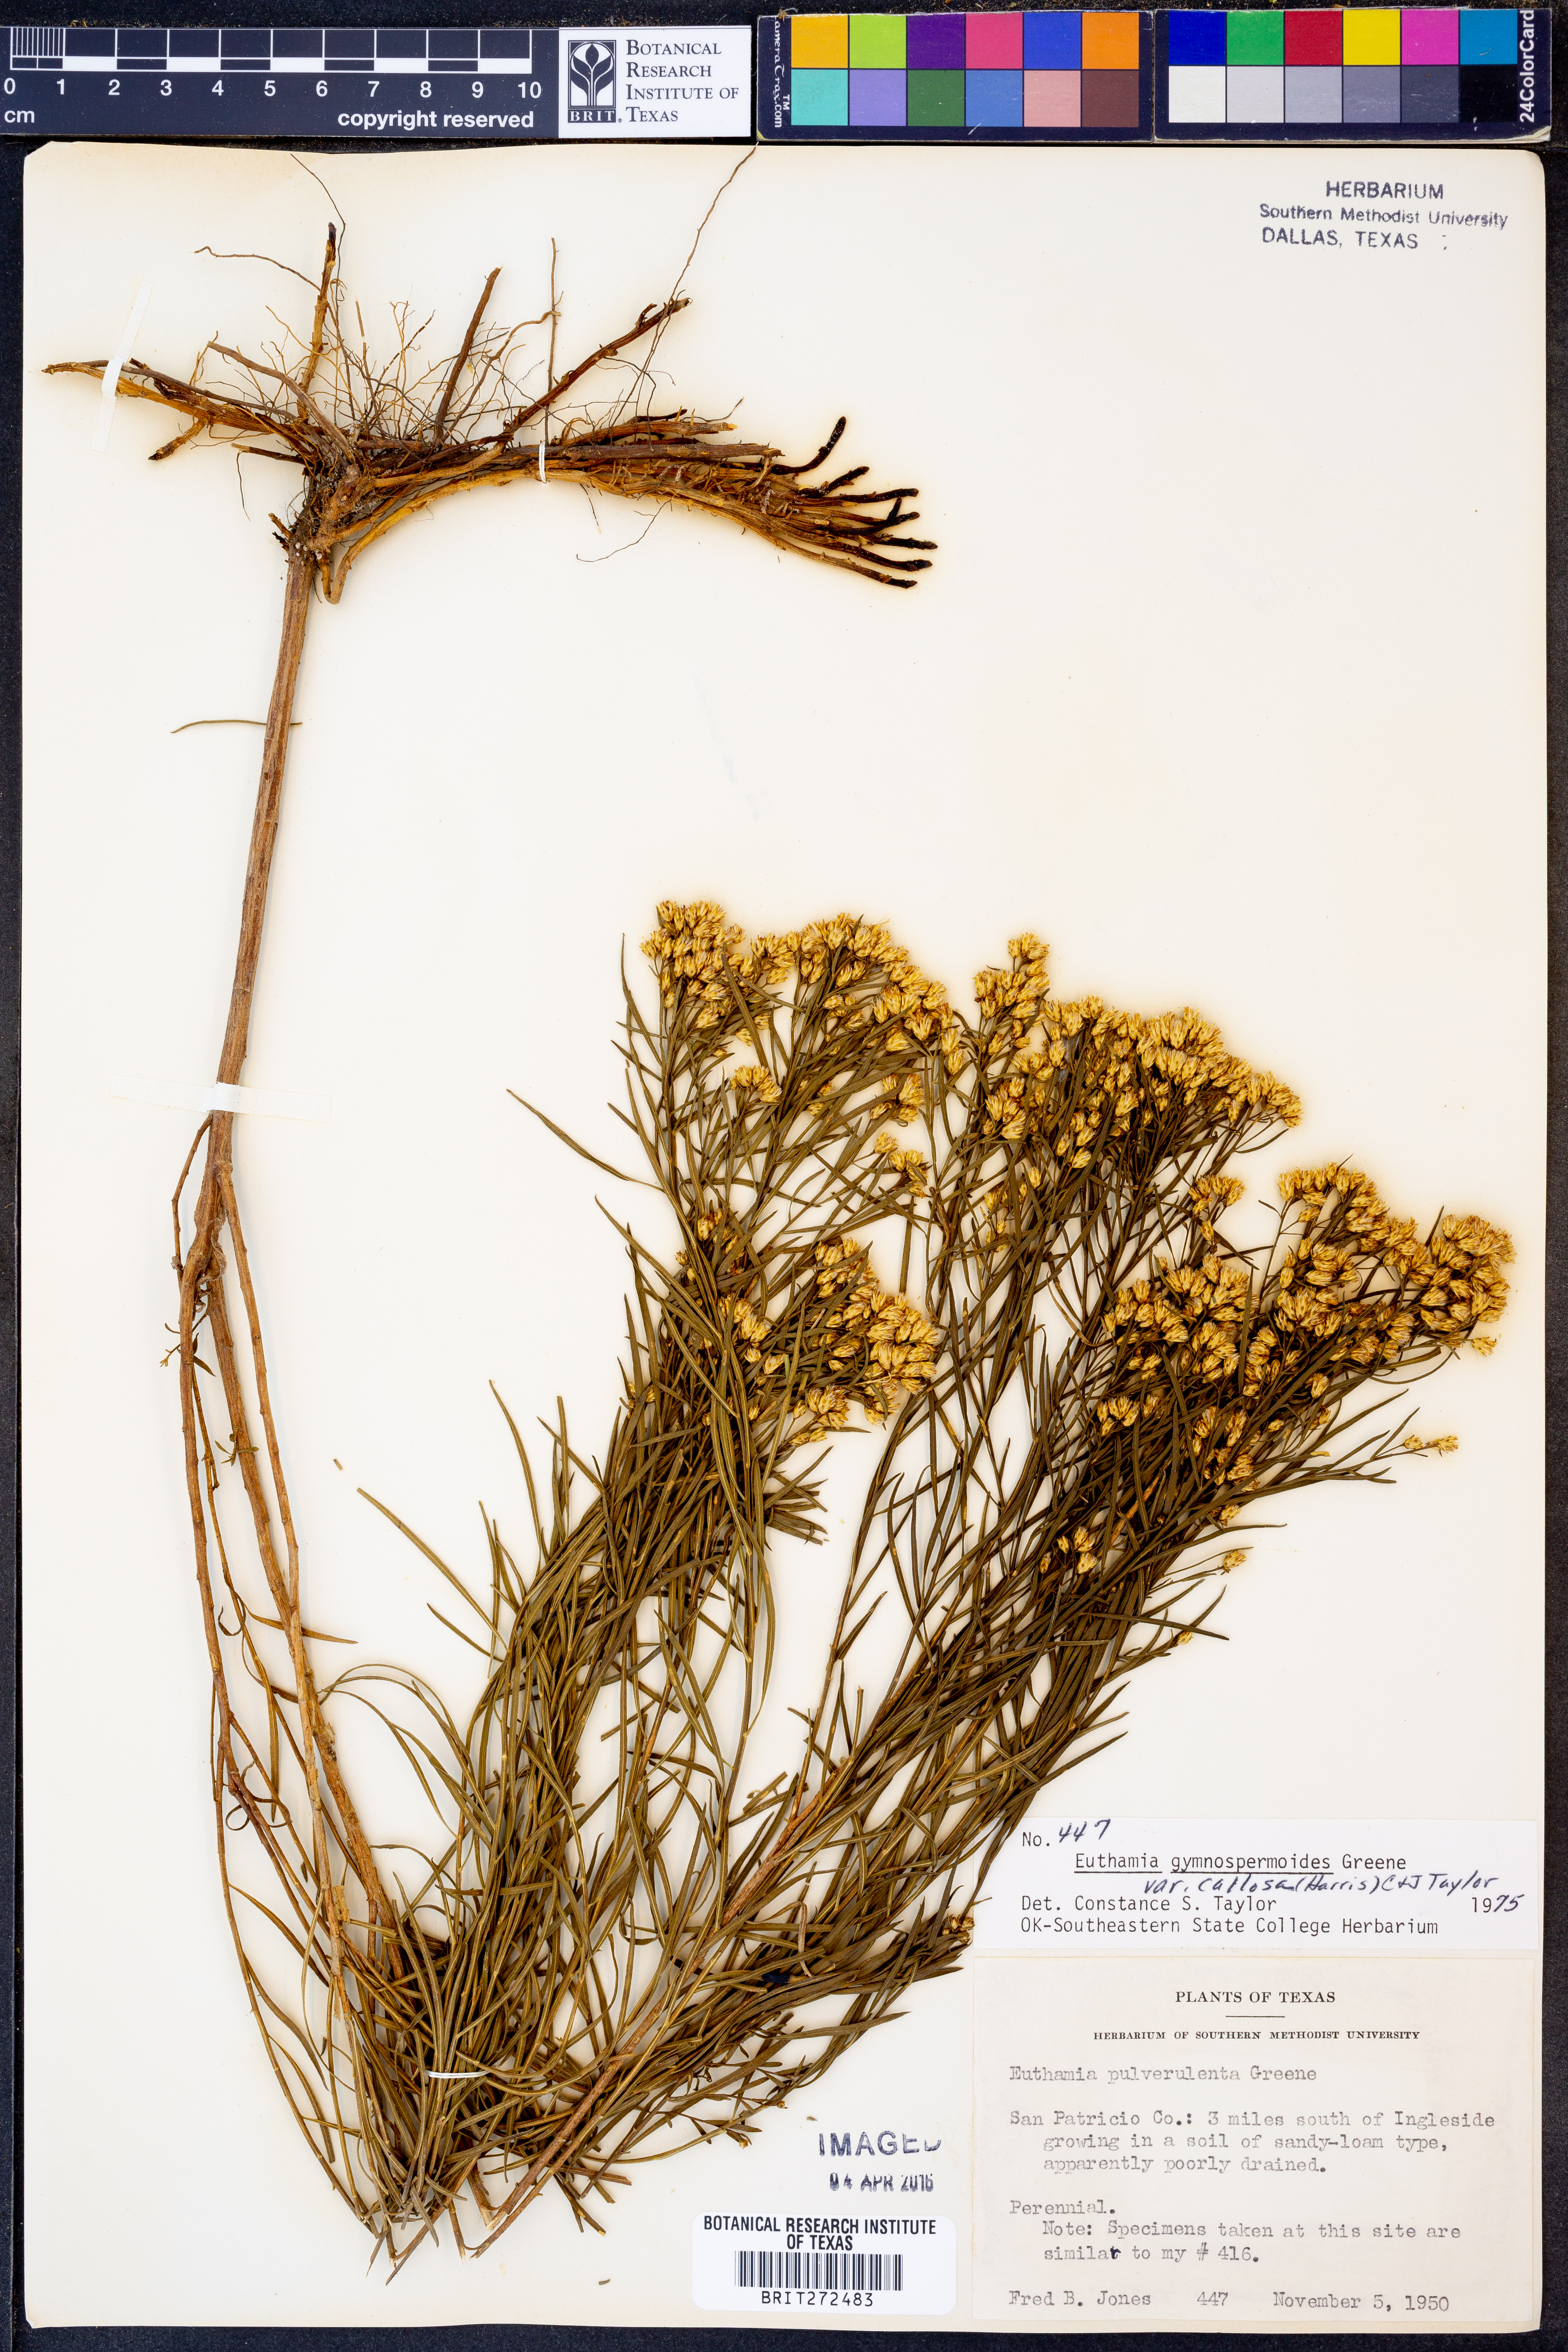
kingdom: Plantae
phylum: Tracheophyta
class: Magnoliopsida
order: Asterales
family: Asteraceae
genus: Euthamia
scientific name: Euthamia gymnospermoides
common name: Great plains goldentop
